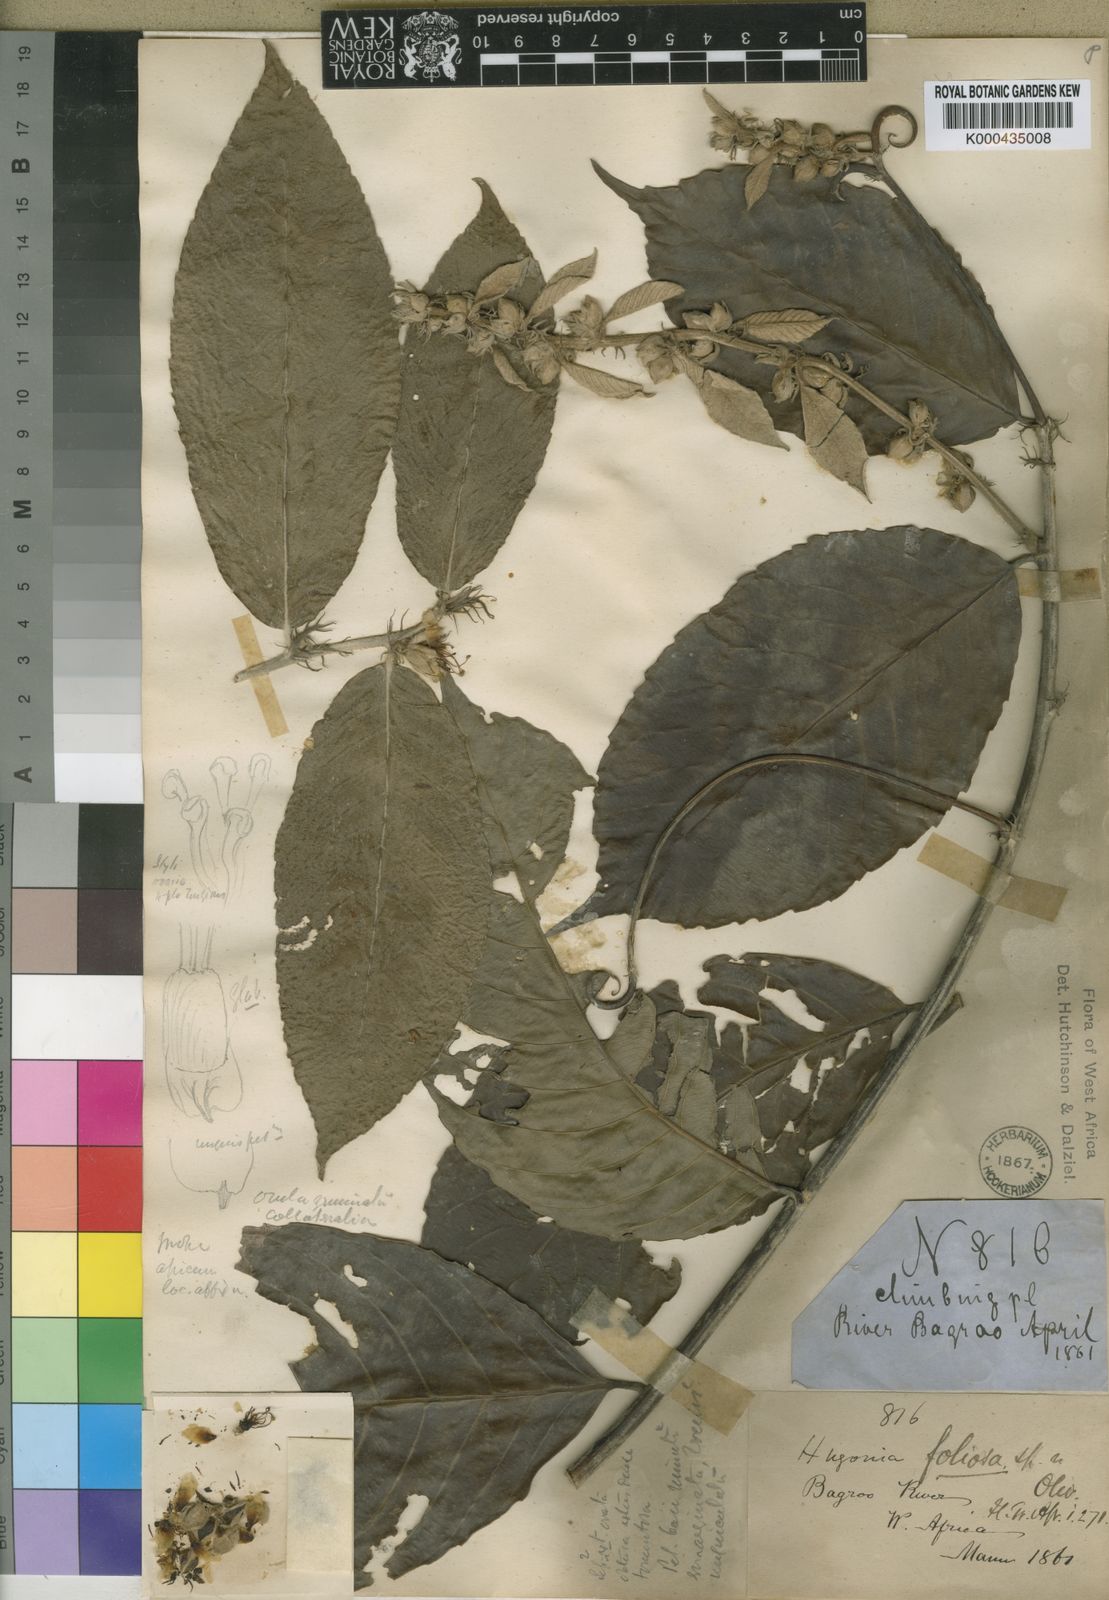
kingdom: Plantae
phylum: Tracheophyta
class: Magnoliopsida
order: Malpighiales
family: Linaceae
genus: Hugonia
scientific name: Hugonia afzelii
